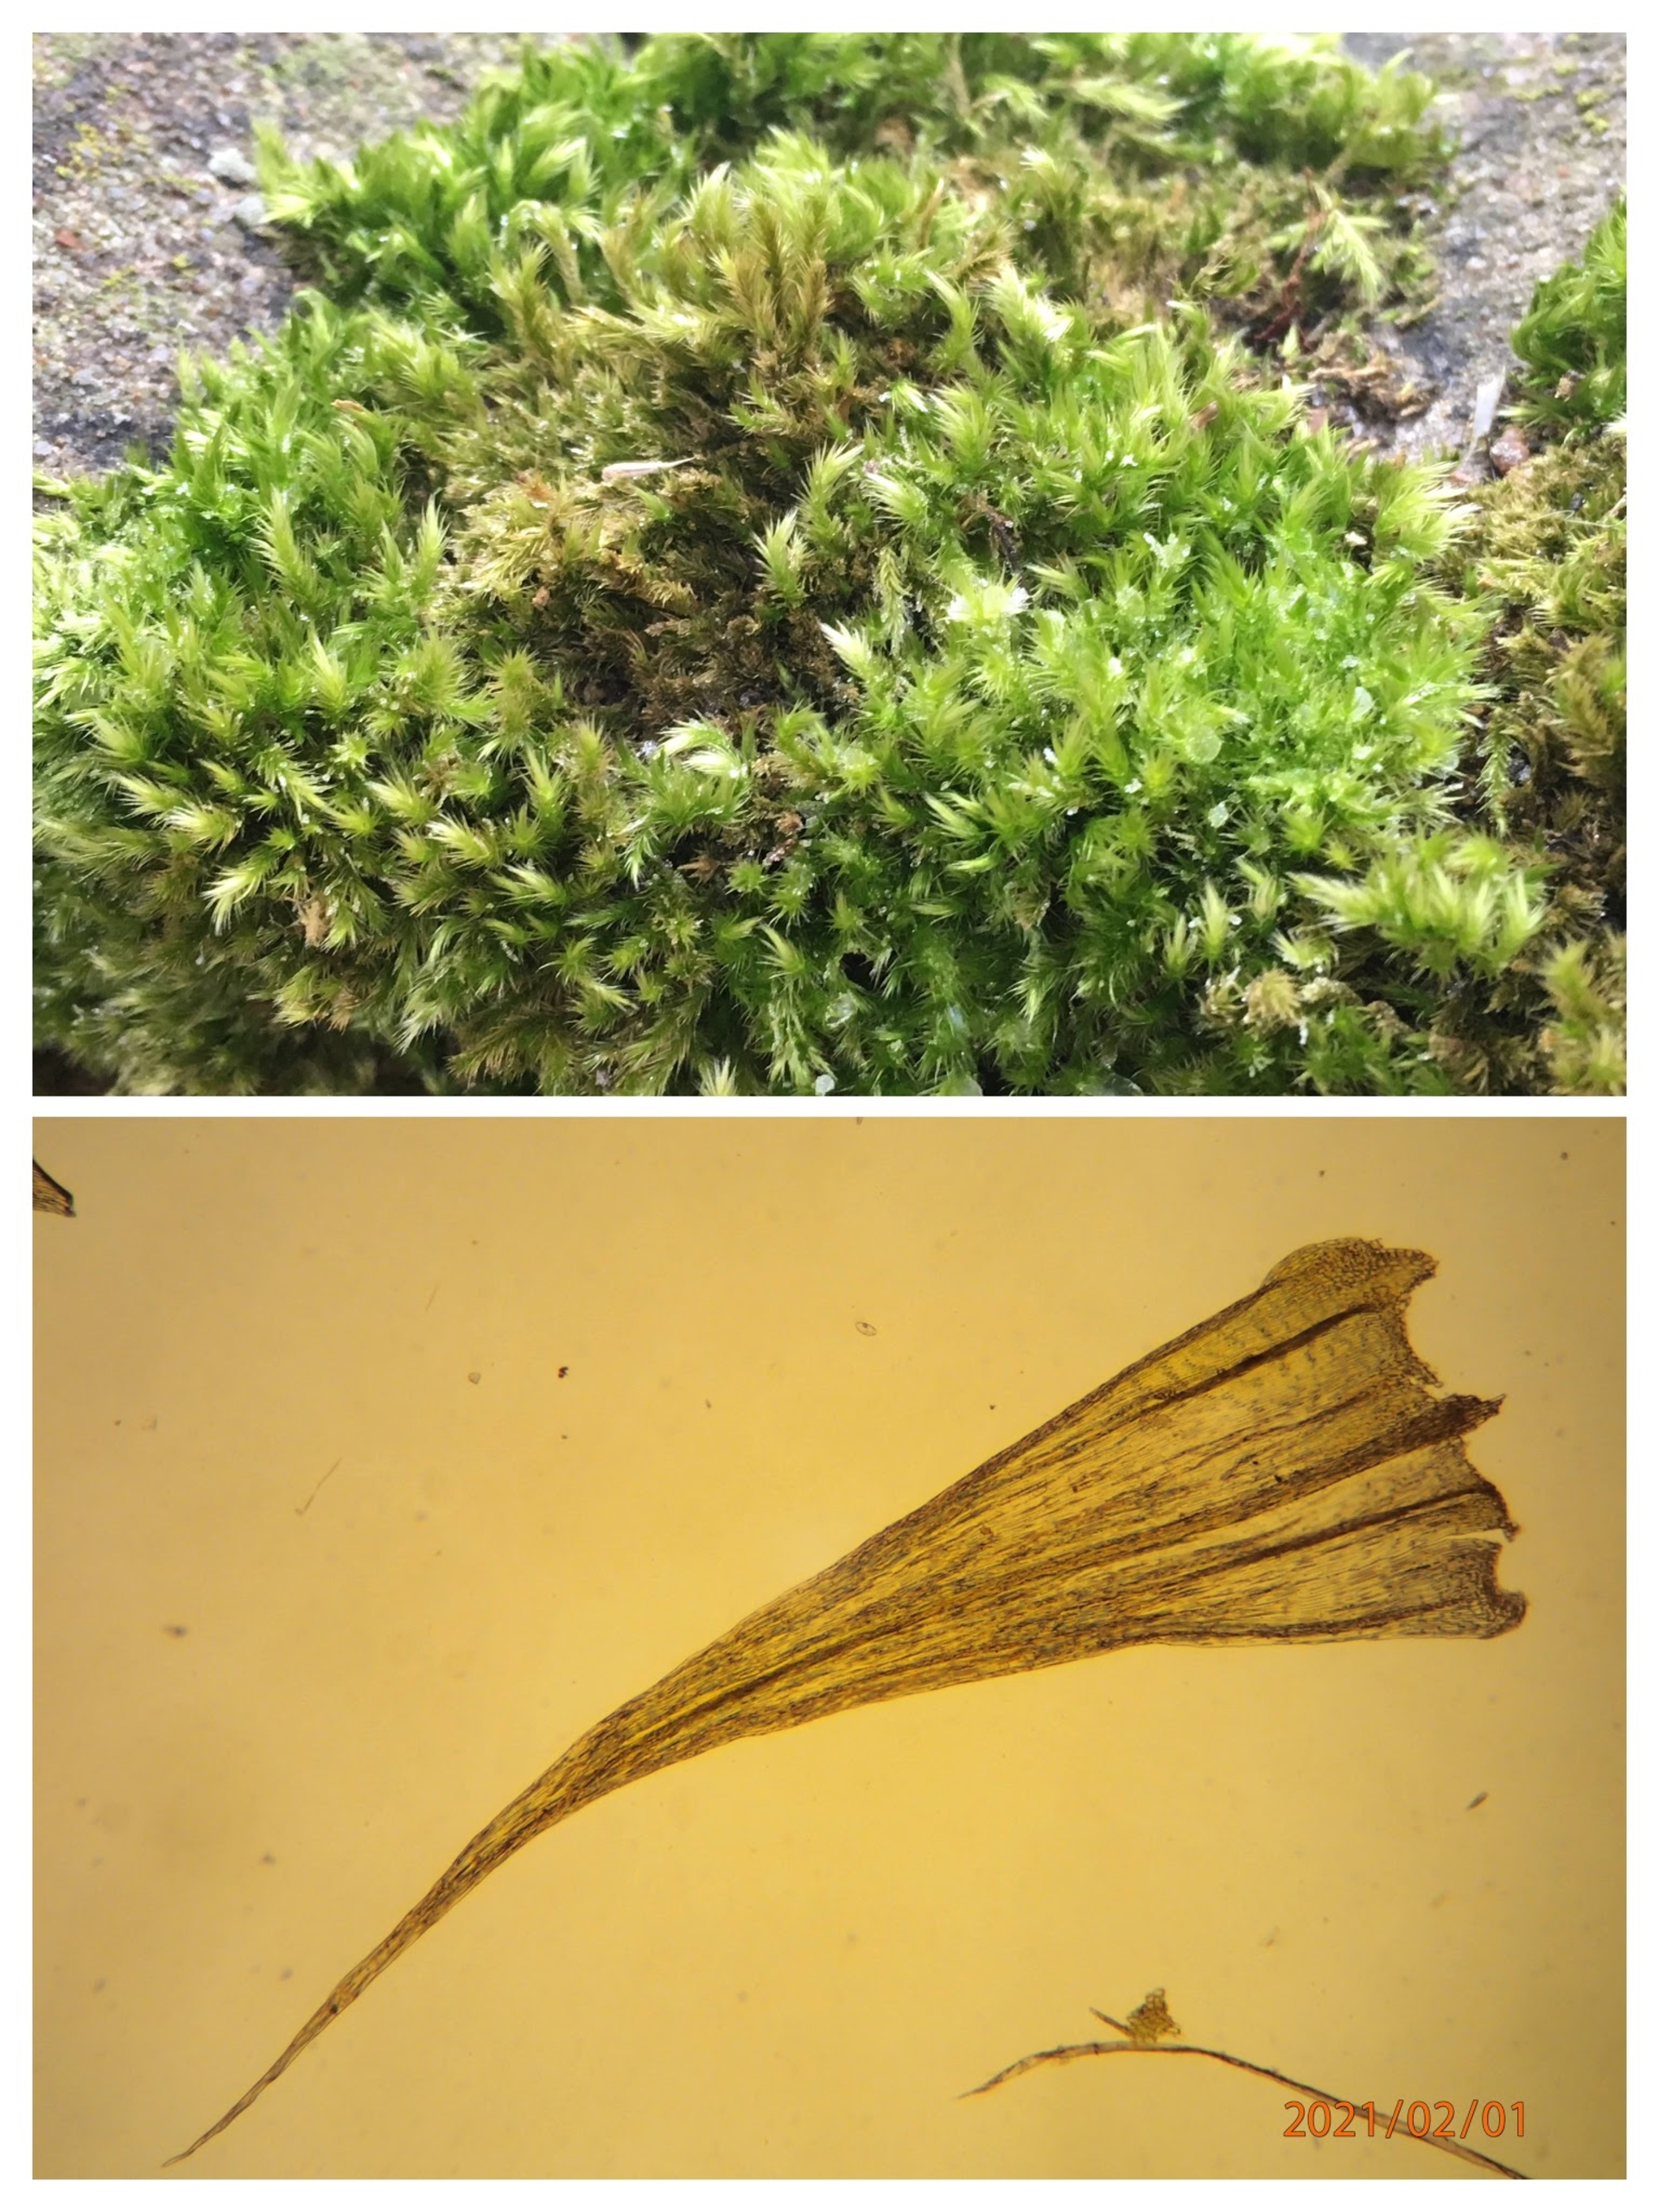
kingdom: Plantae
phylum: Bryophyta
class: Bryopsida
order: Hypnales
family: Brachytheciaceae
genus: Homalothecium
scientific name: Homalothecium sericeum
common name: Krybende silkemos
